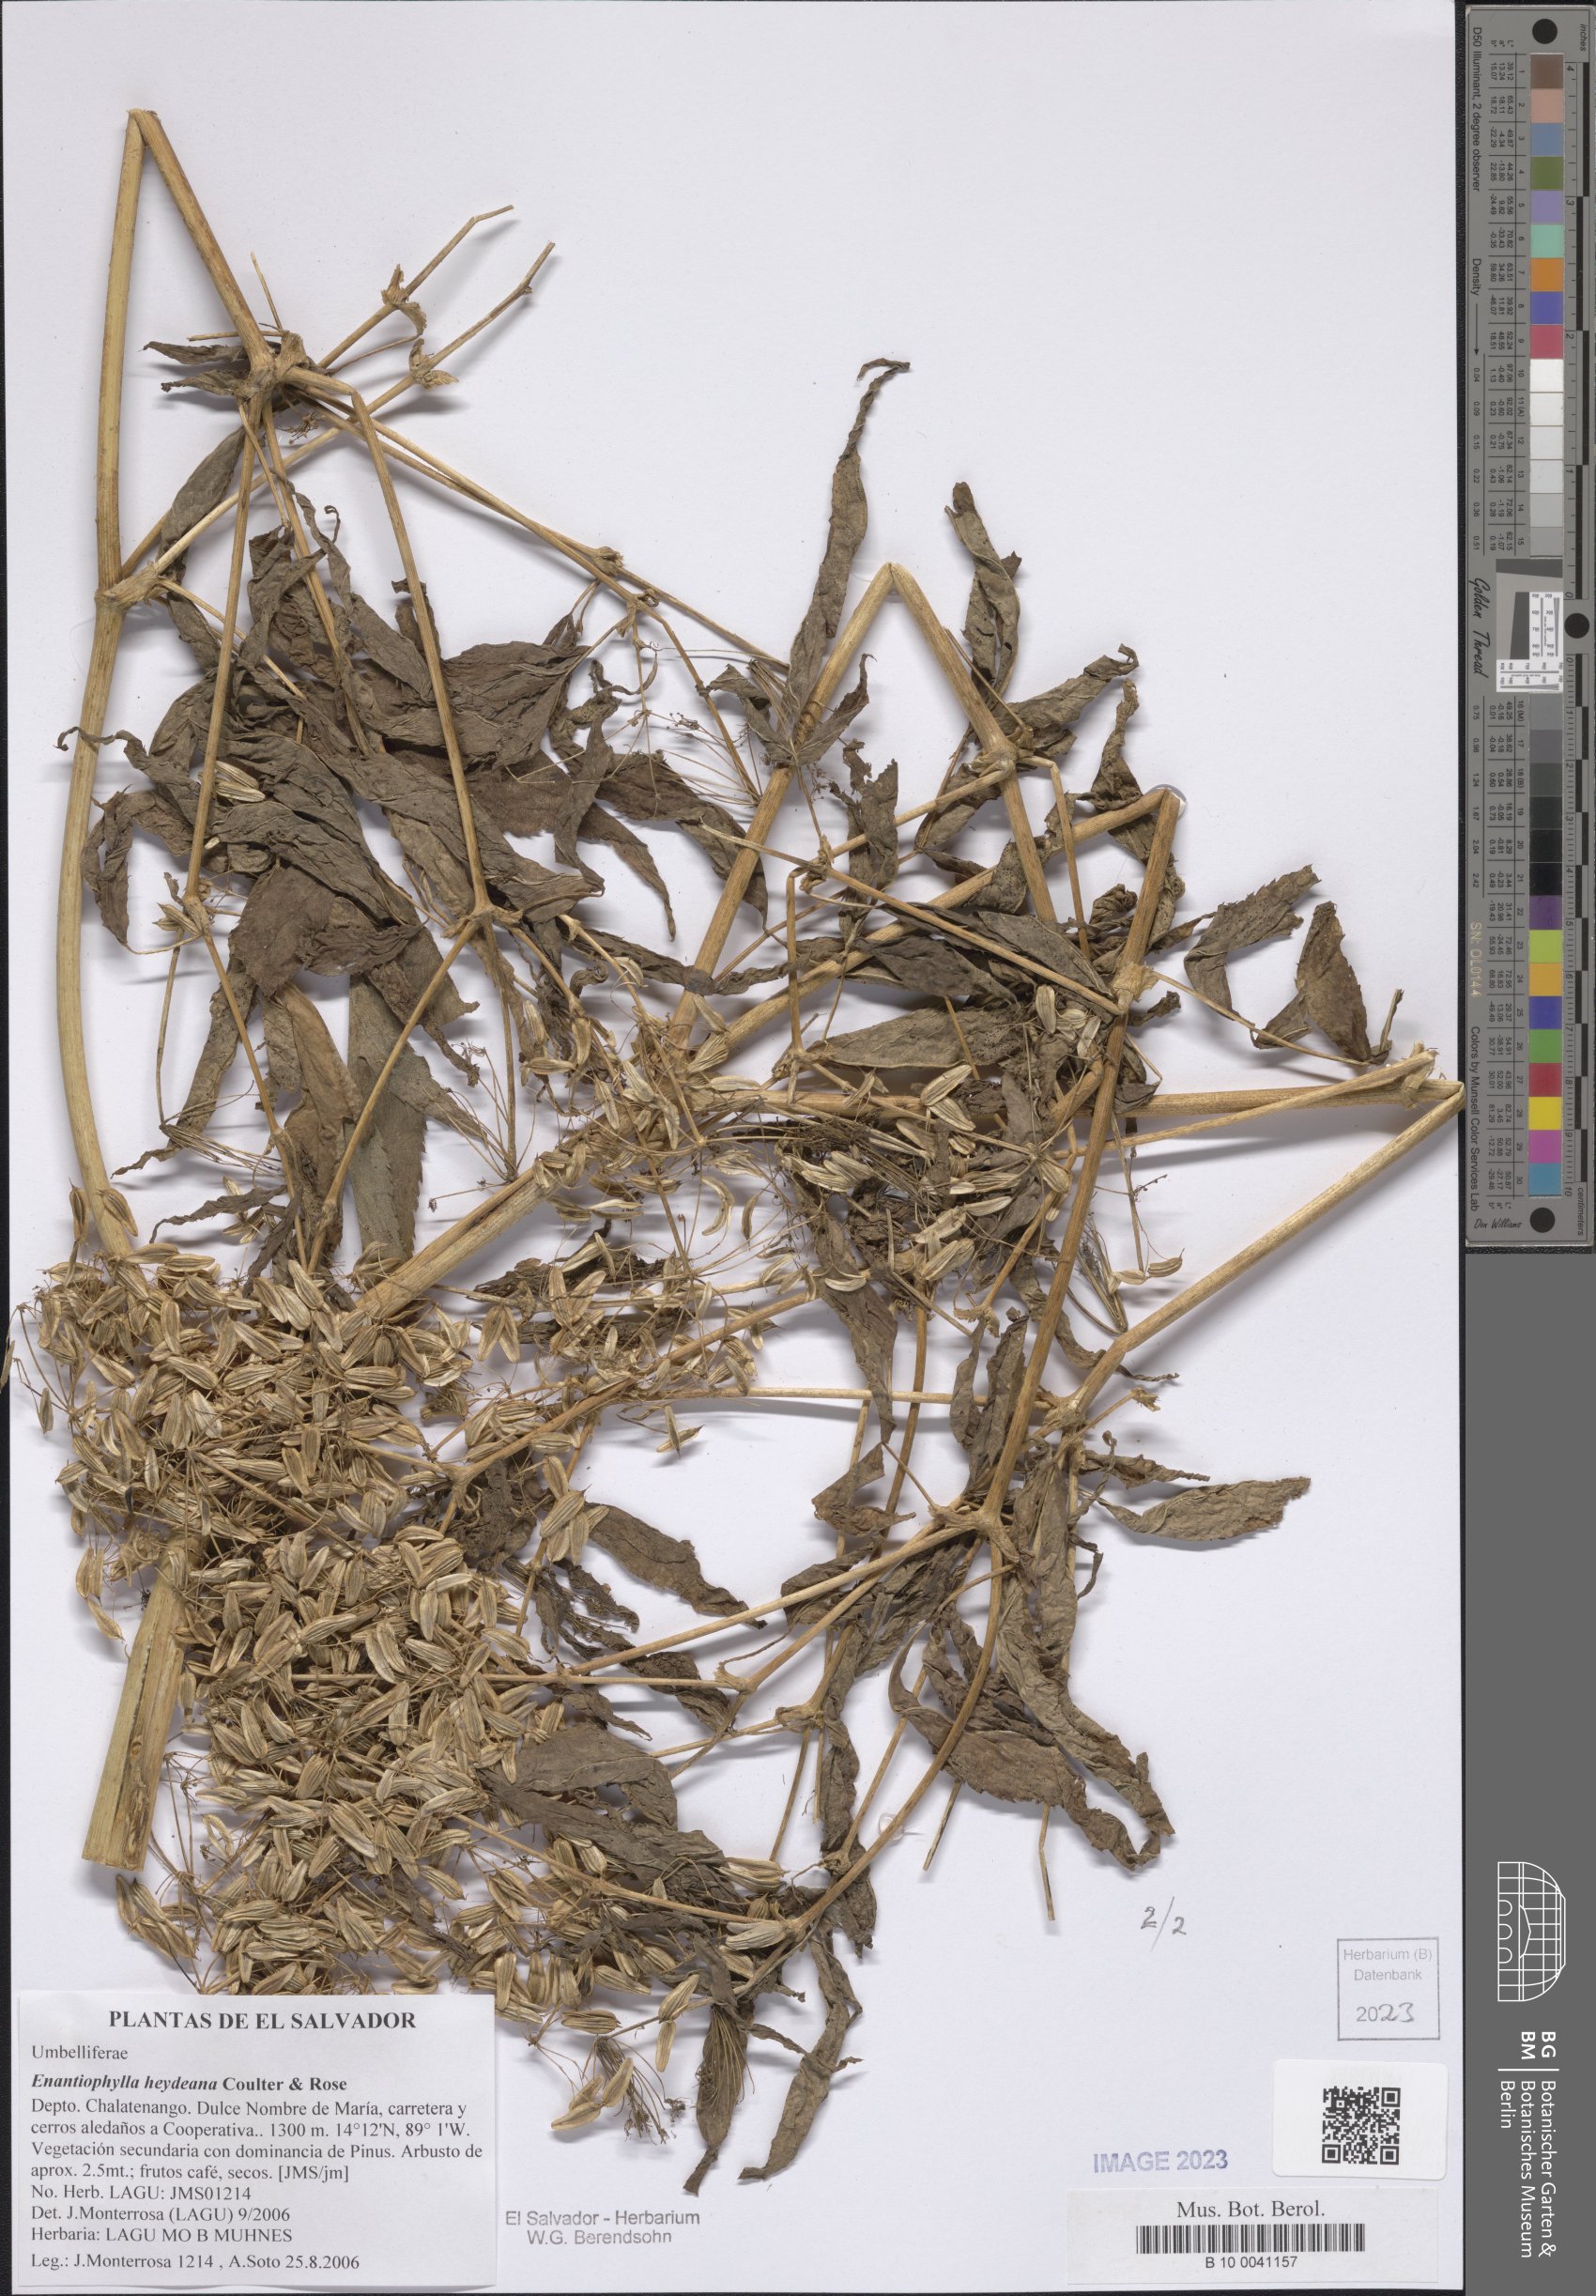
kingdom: Plantae
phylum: Tracheophyta
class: Magnoliopsida
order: Apiales
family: Apiaceae
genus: Enantiophylla
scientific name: Enantiophylla heydeana
